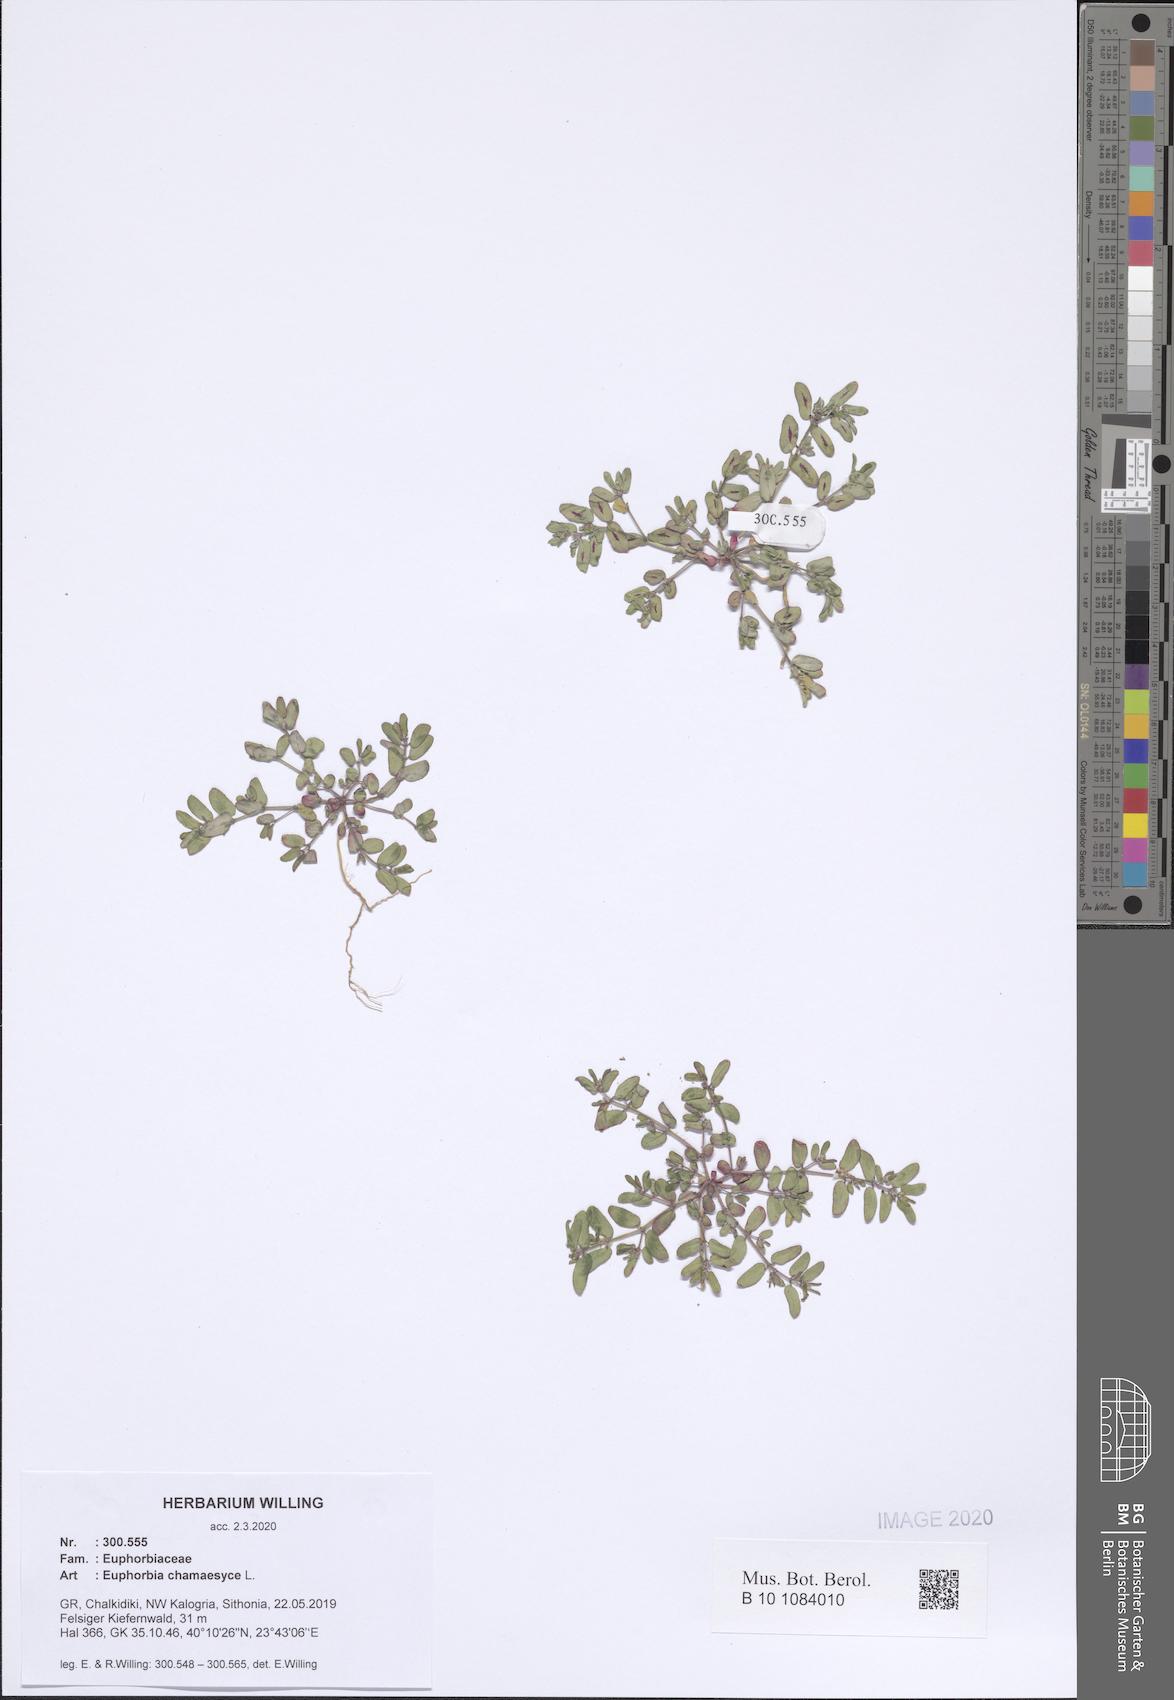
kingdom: Plantae
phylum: Tracheophyta
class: Magnoliopsida
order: Malpighiales
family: Euphorbiaceae
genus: Euphorbia
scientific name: Euphorbia chamaesyce
